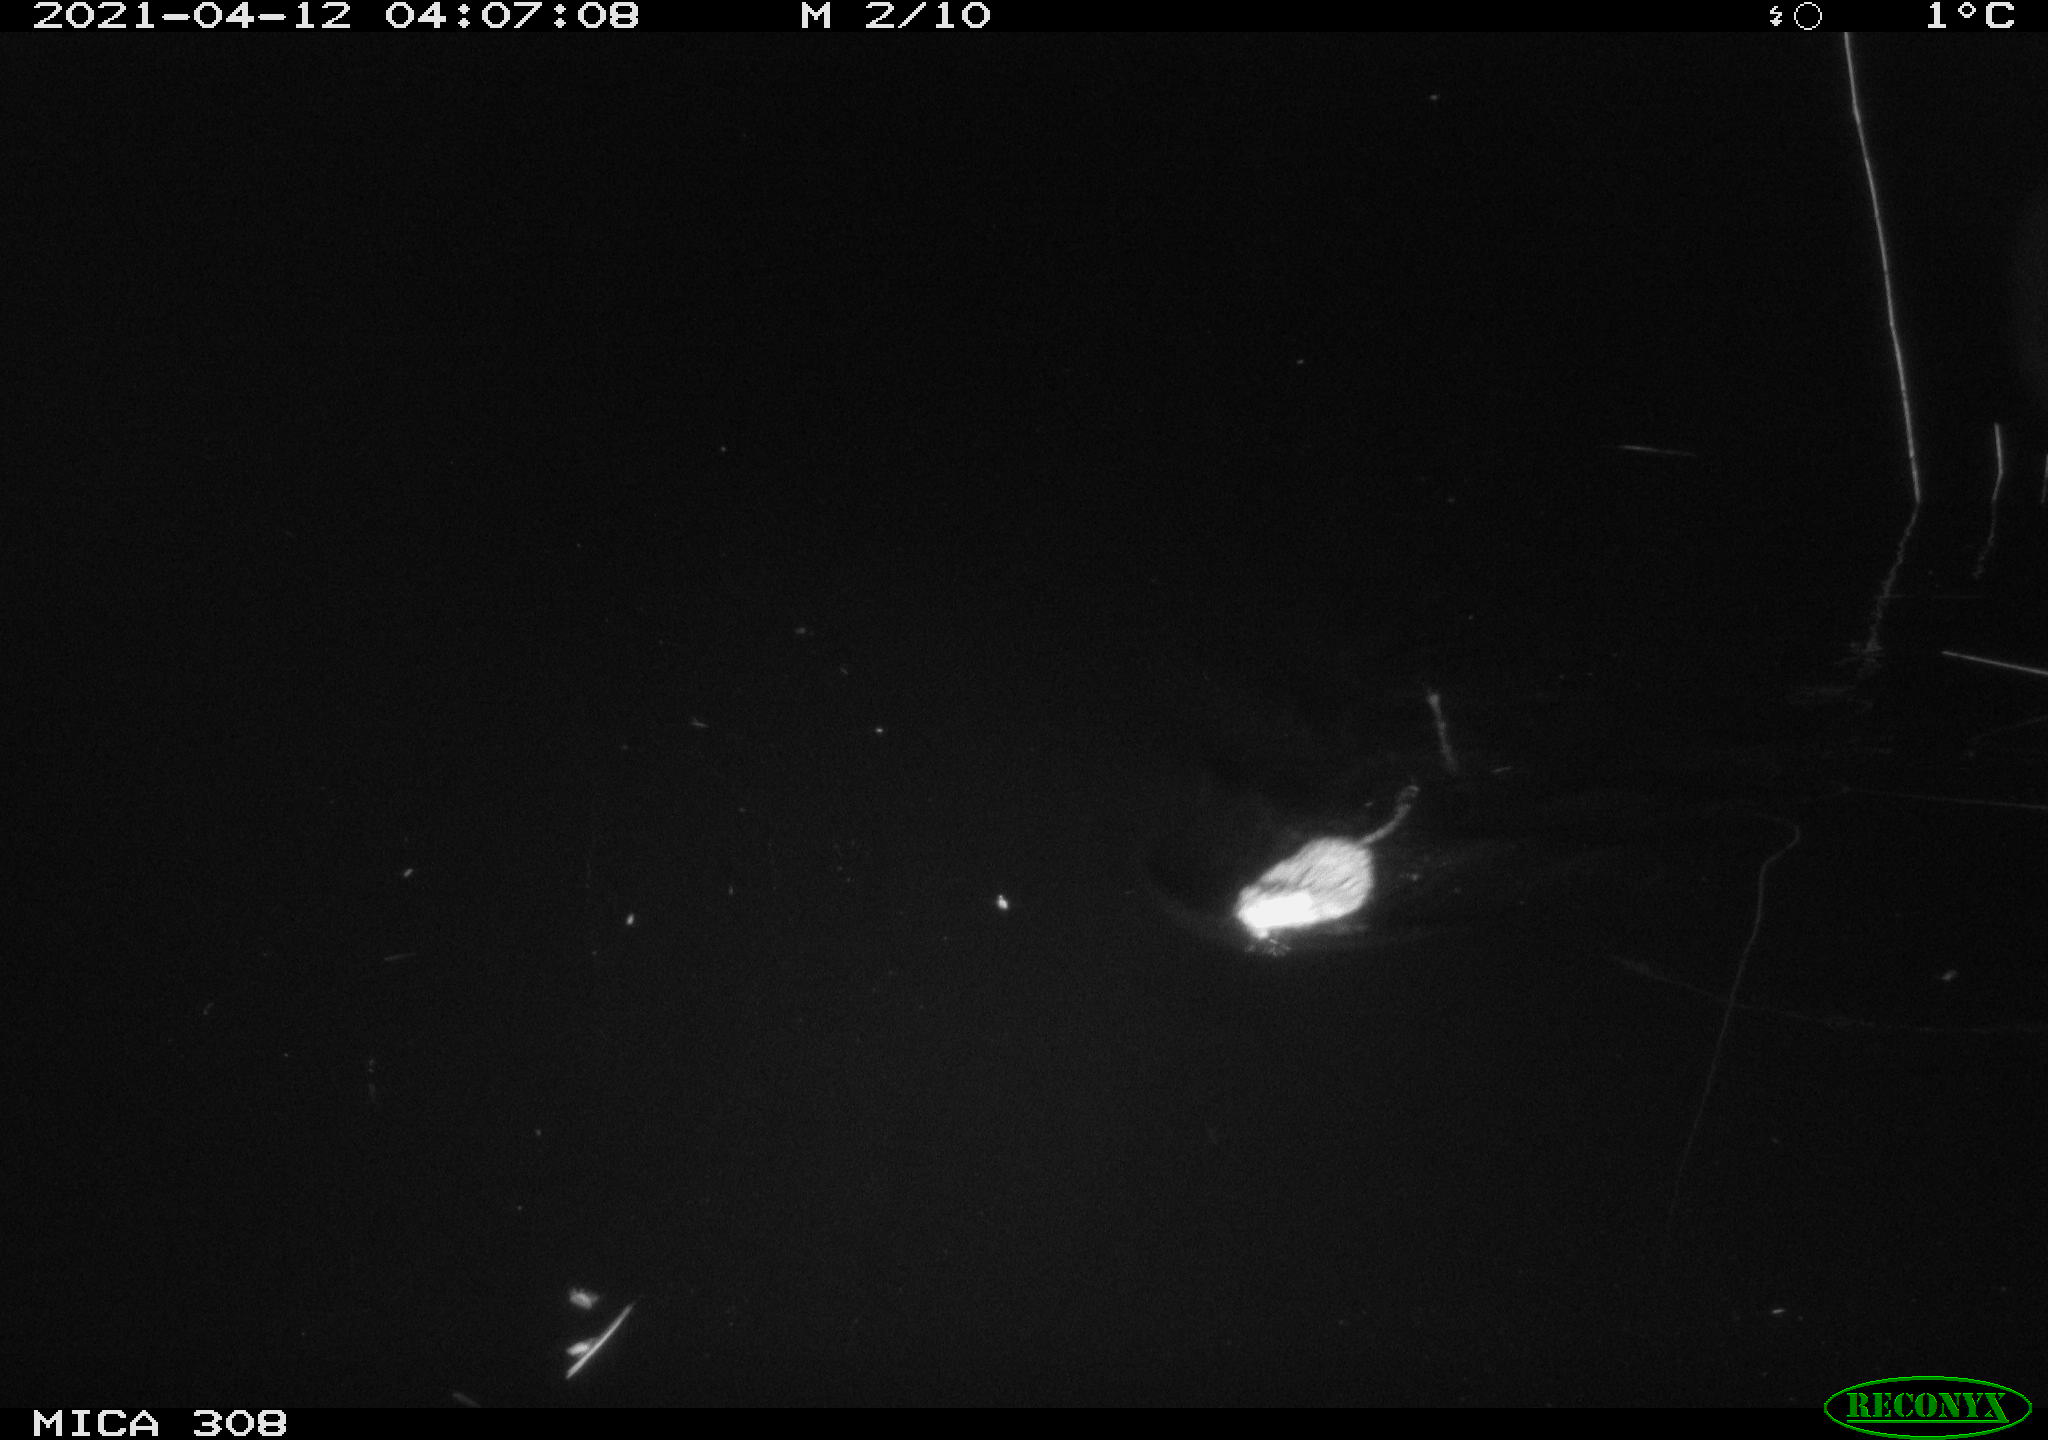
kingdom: Animalia
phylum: Chordata
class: Mammalia
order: Rodentia
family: Cricetidae
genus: Ondatra
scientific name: Ondatra zibethicus
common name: Muskrat
